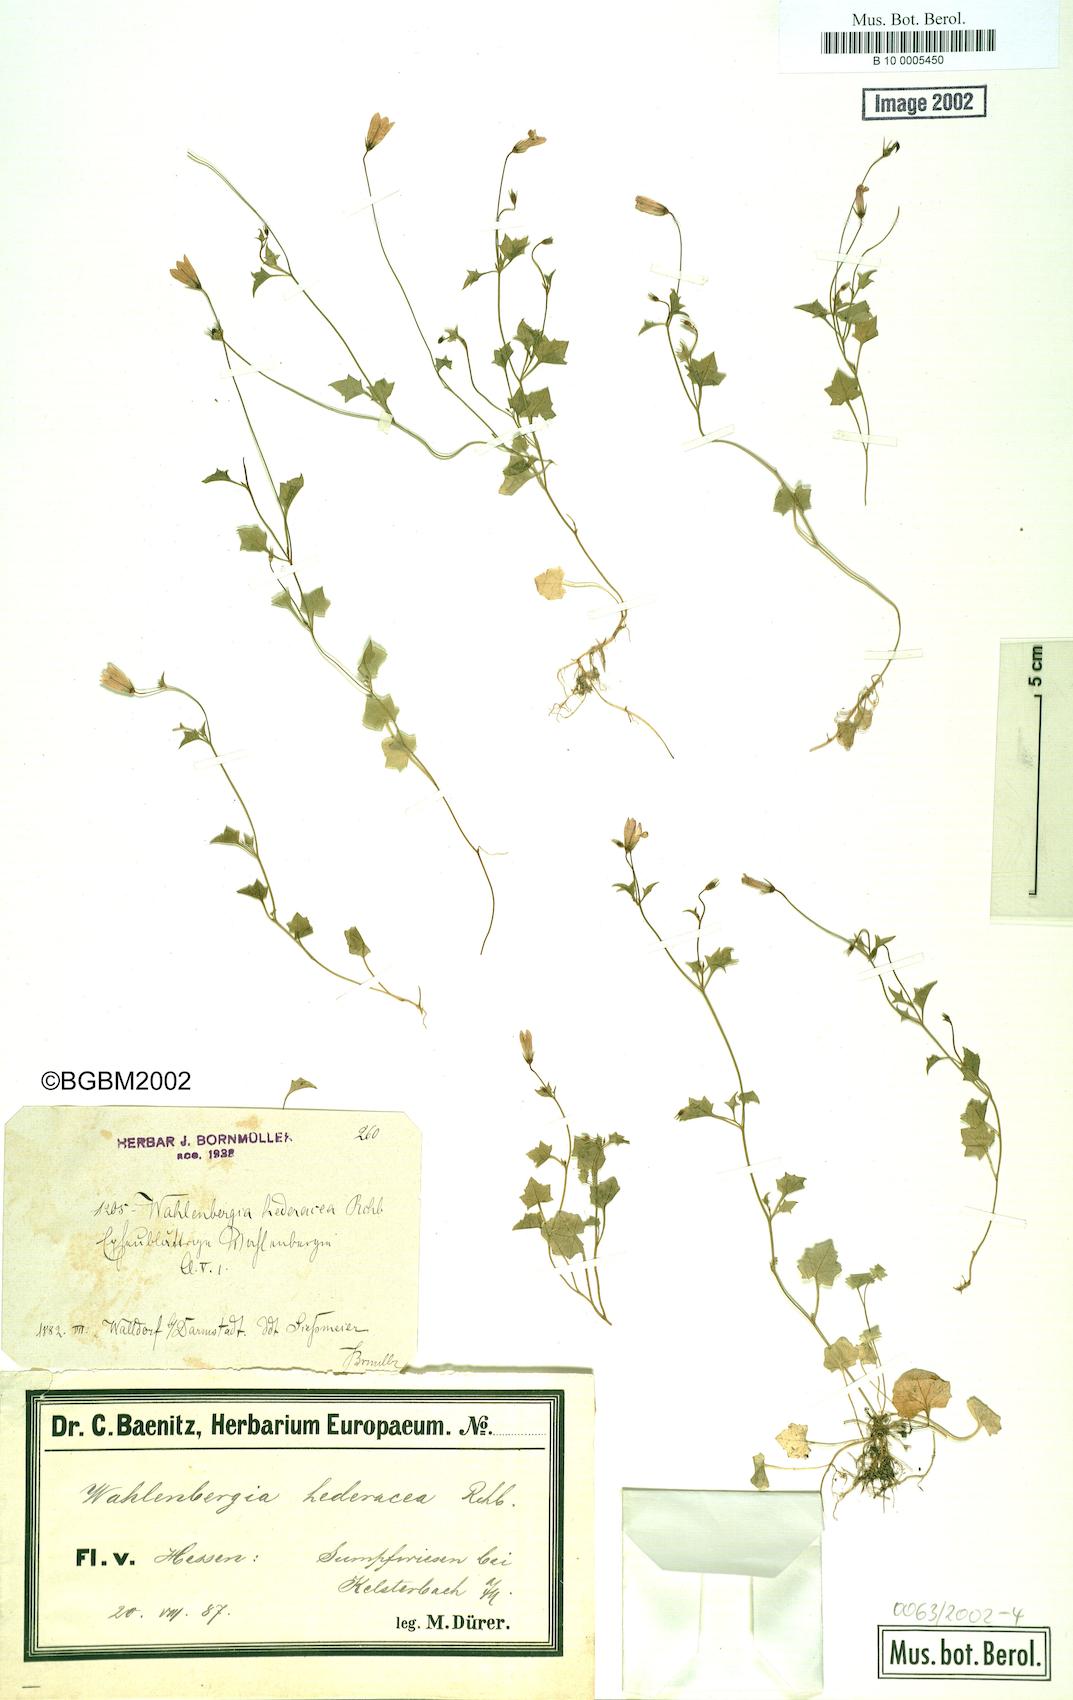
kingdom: Plantae
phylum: Tracheophyta
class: Magnoliopsida
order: Asterales
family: Campanulaceae
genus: Hesperocodon
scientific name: Hesperocodon hederaceus
